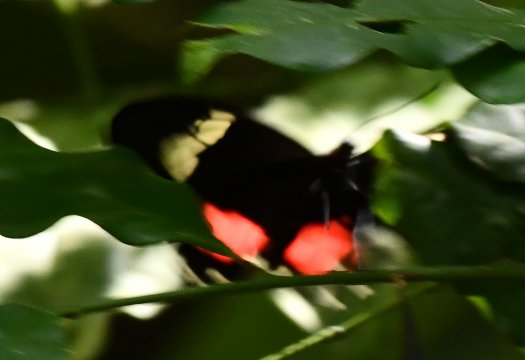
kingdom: Animalia
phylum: Arthropoda
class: Insecta
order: Lepidoptera
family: Papilionidae
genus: Parides
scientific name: Parides iphidamas
